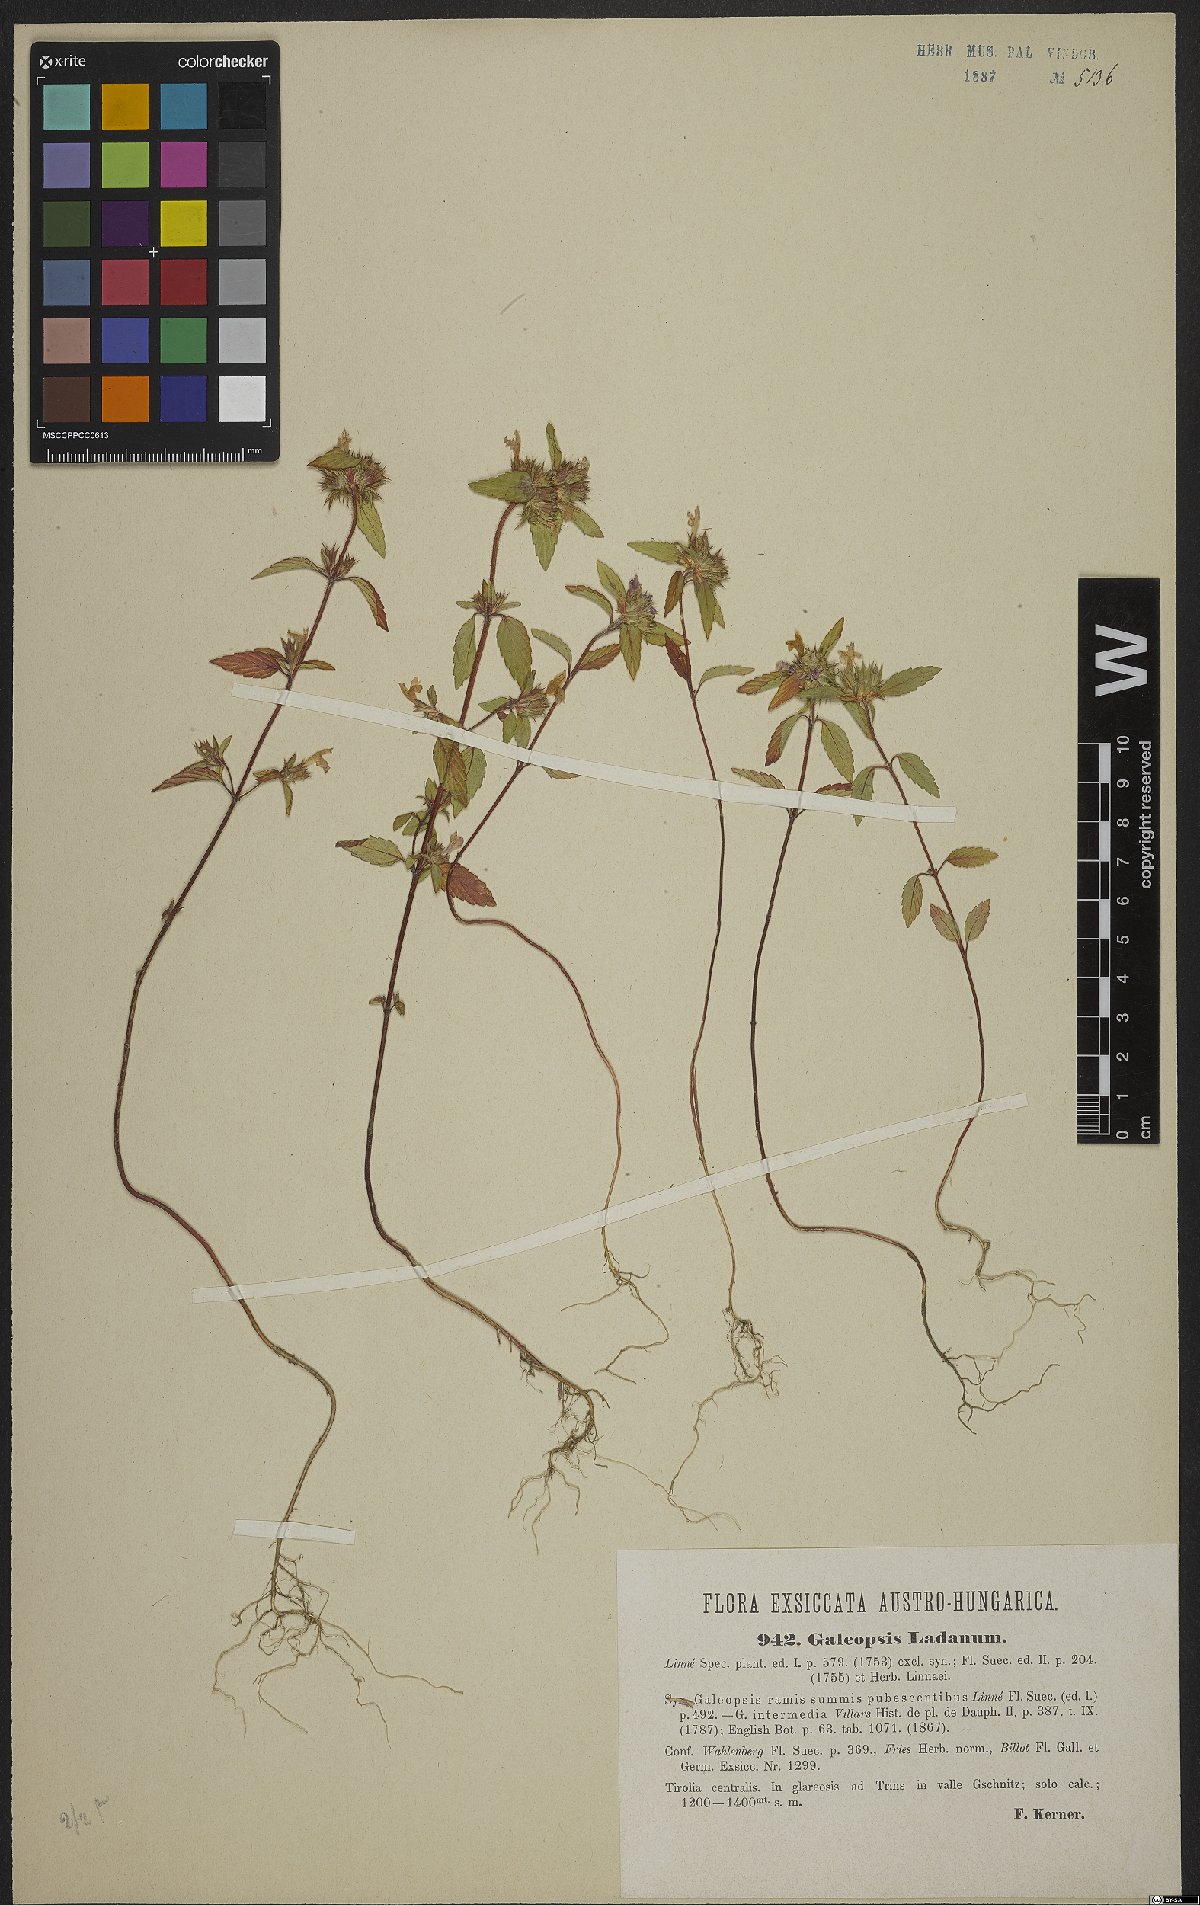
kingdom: Plantae
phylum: Tracheophyta
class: Magnoliopsida
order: Lamiales
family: Lamiaceae
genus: Galeopsis
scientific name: Galeopsis ladanum
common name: Broad-leaved hemp-nettle
